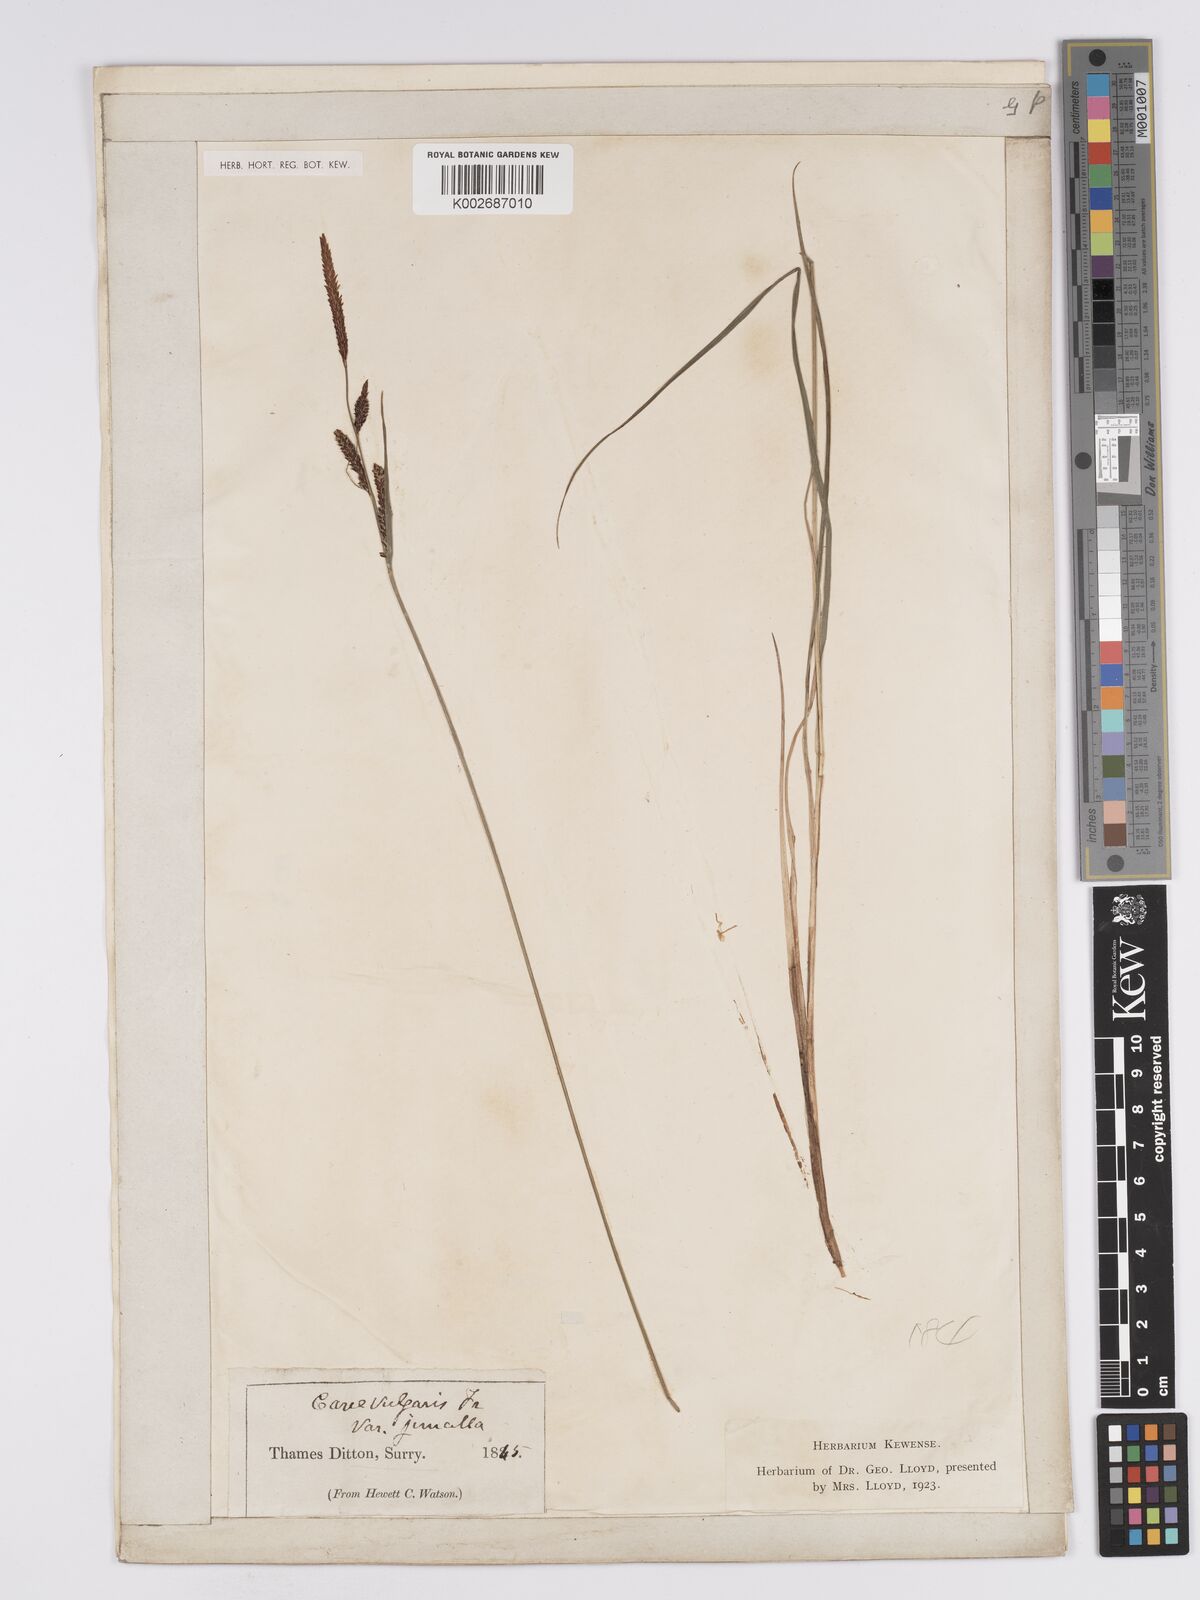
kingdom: Plantae
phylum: Tracheophyta
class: Liliopsida
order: Poales
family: Cyperaceae
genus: Carex
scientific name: Carex nigra
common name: Common sedge
